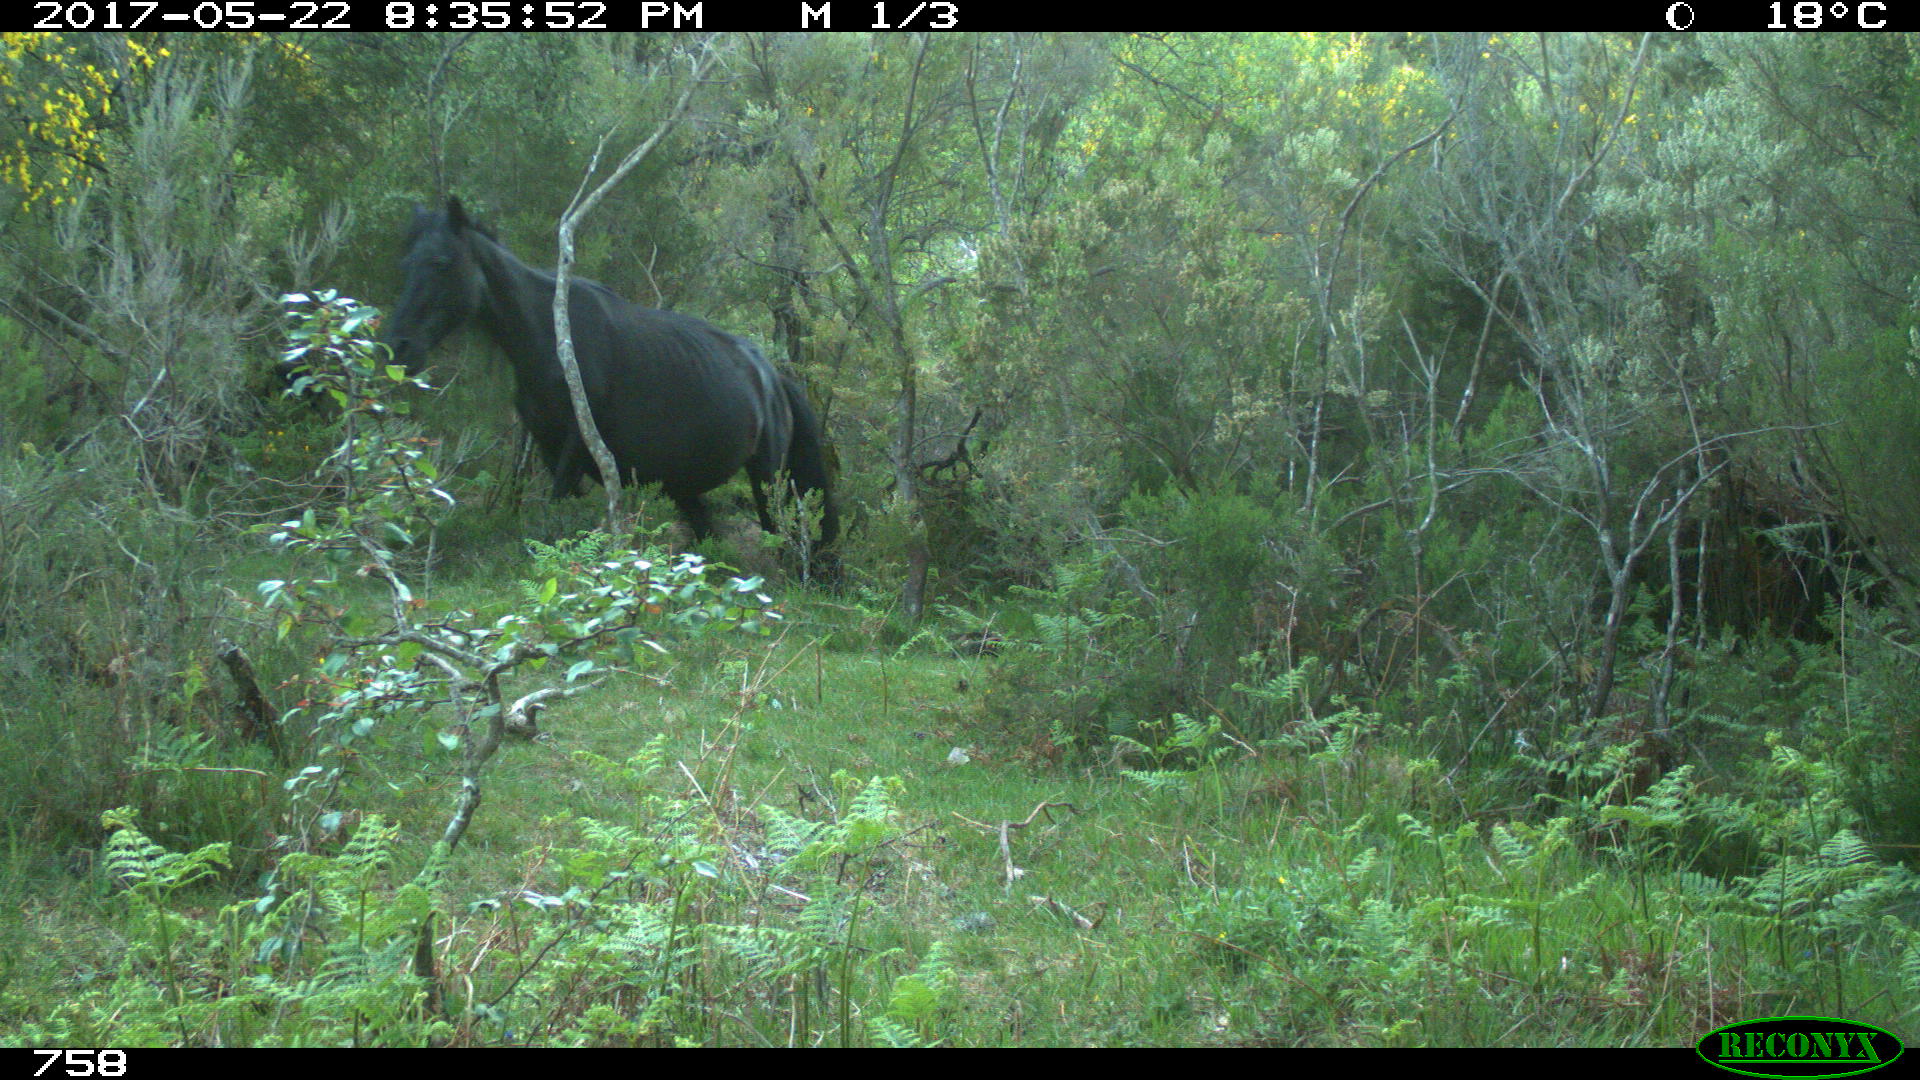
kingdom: Animalia
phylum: Chordata
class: Mammalia
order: Perissodactyla
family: Equidae
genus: Equus
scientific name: Equus caballus
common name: Horse
